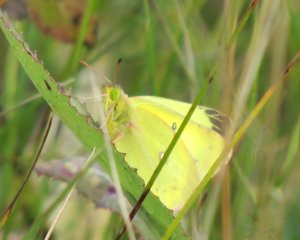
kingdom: Animalia
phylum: Arthropoda
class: Insecta
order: Lepidoptera
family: Pieridae
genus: Colias
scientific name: Colias philodice
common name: Clouded Sulphur
